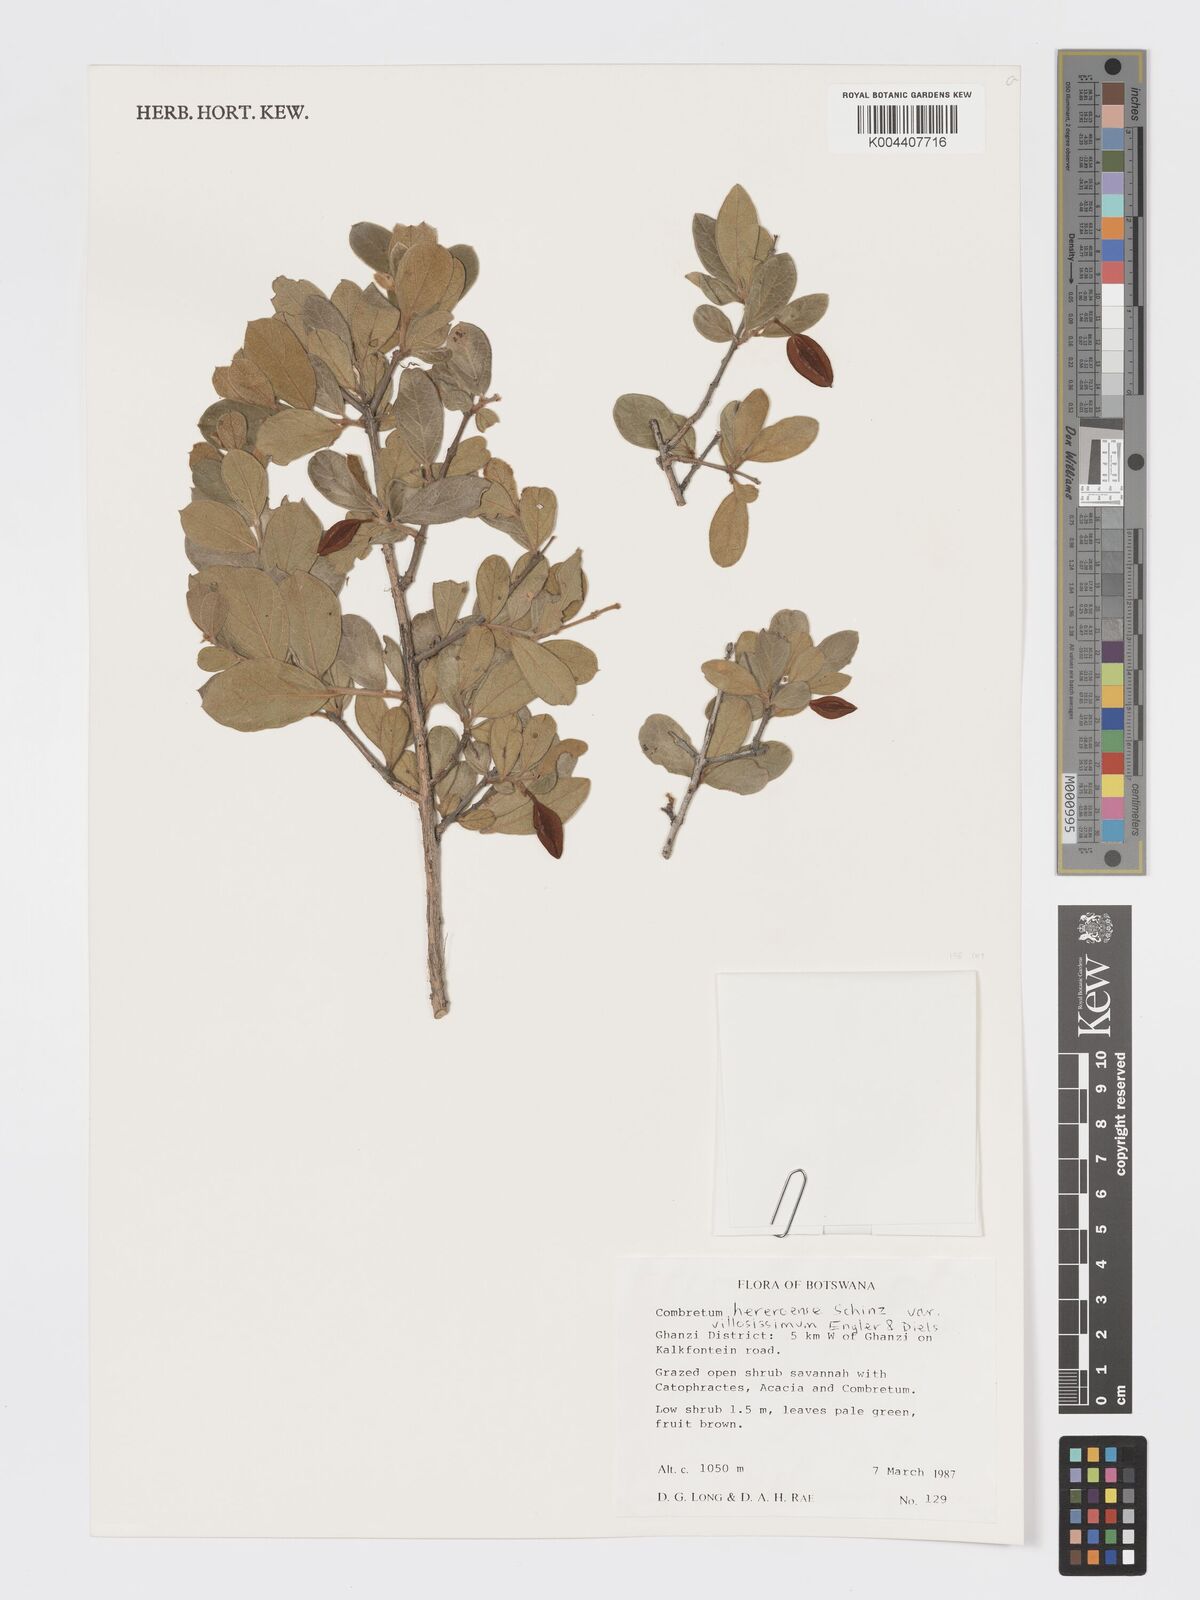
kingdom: Plantae
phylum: Tracheophyta
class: Magnoliopsida
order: Myrtales
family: Combretaceae
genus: Combretum
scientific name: Combretum hereroense
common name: Russet bushwillow
